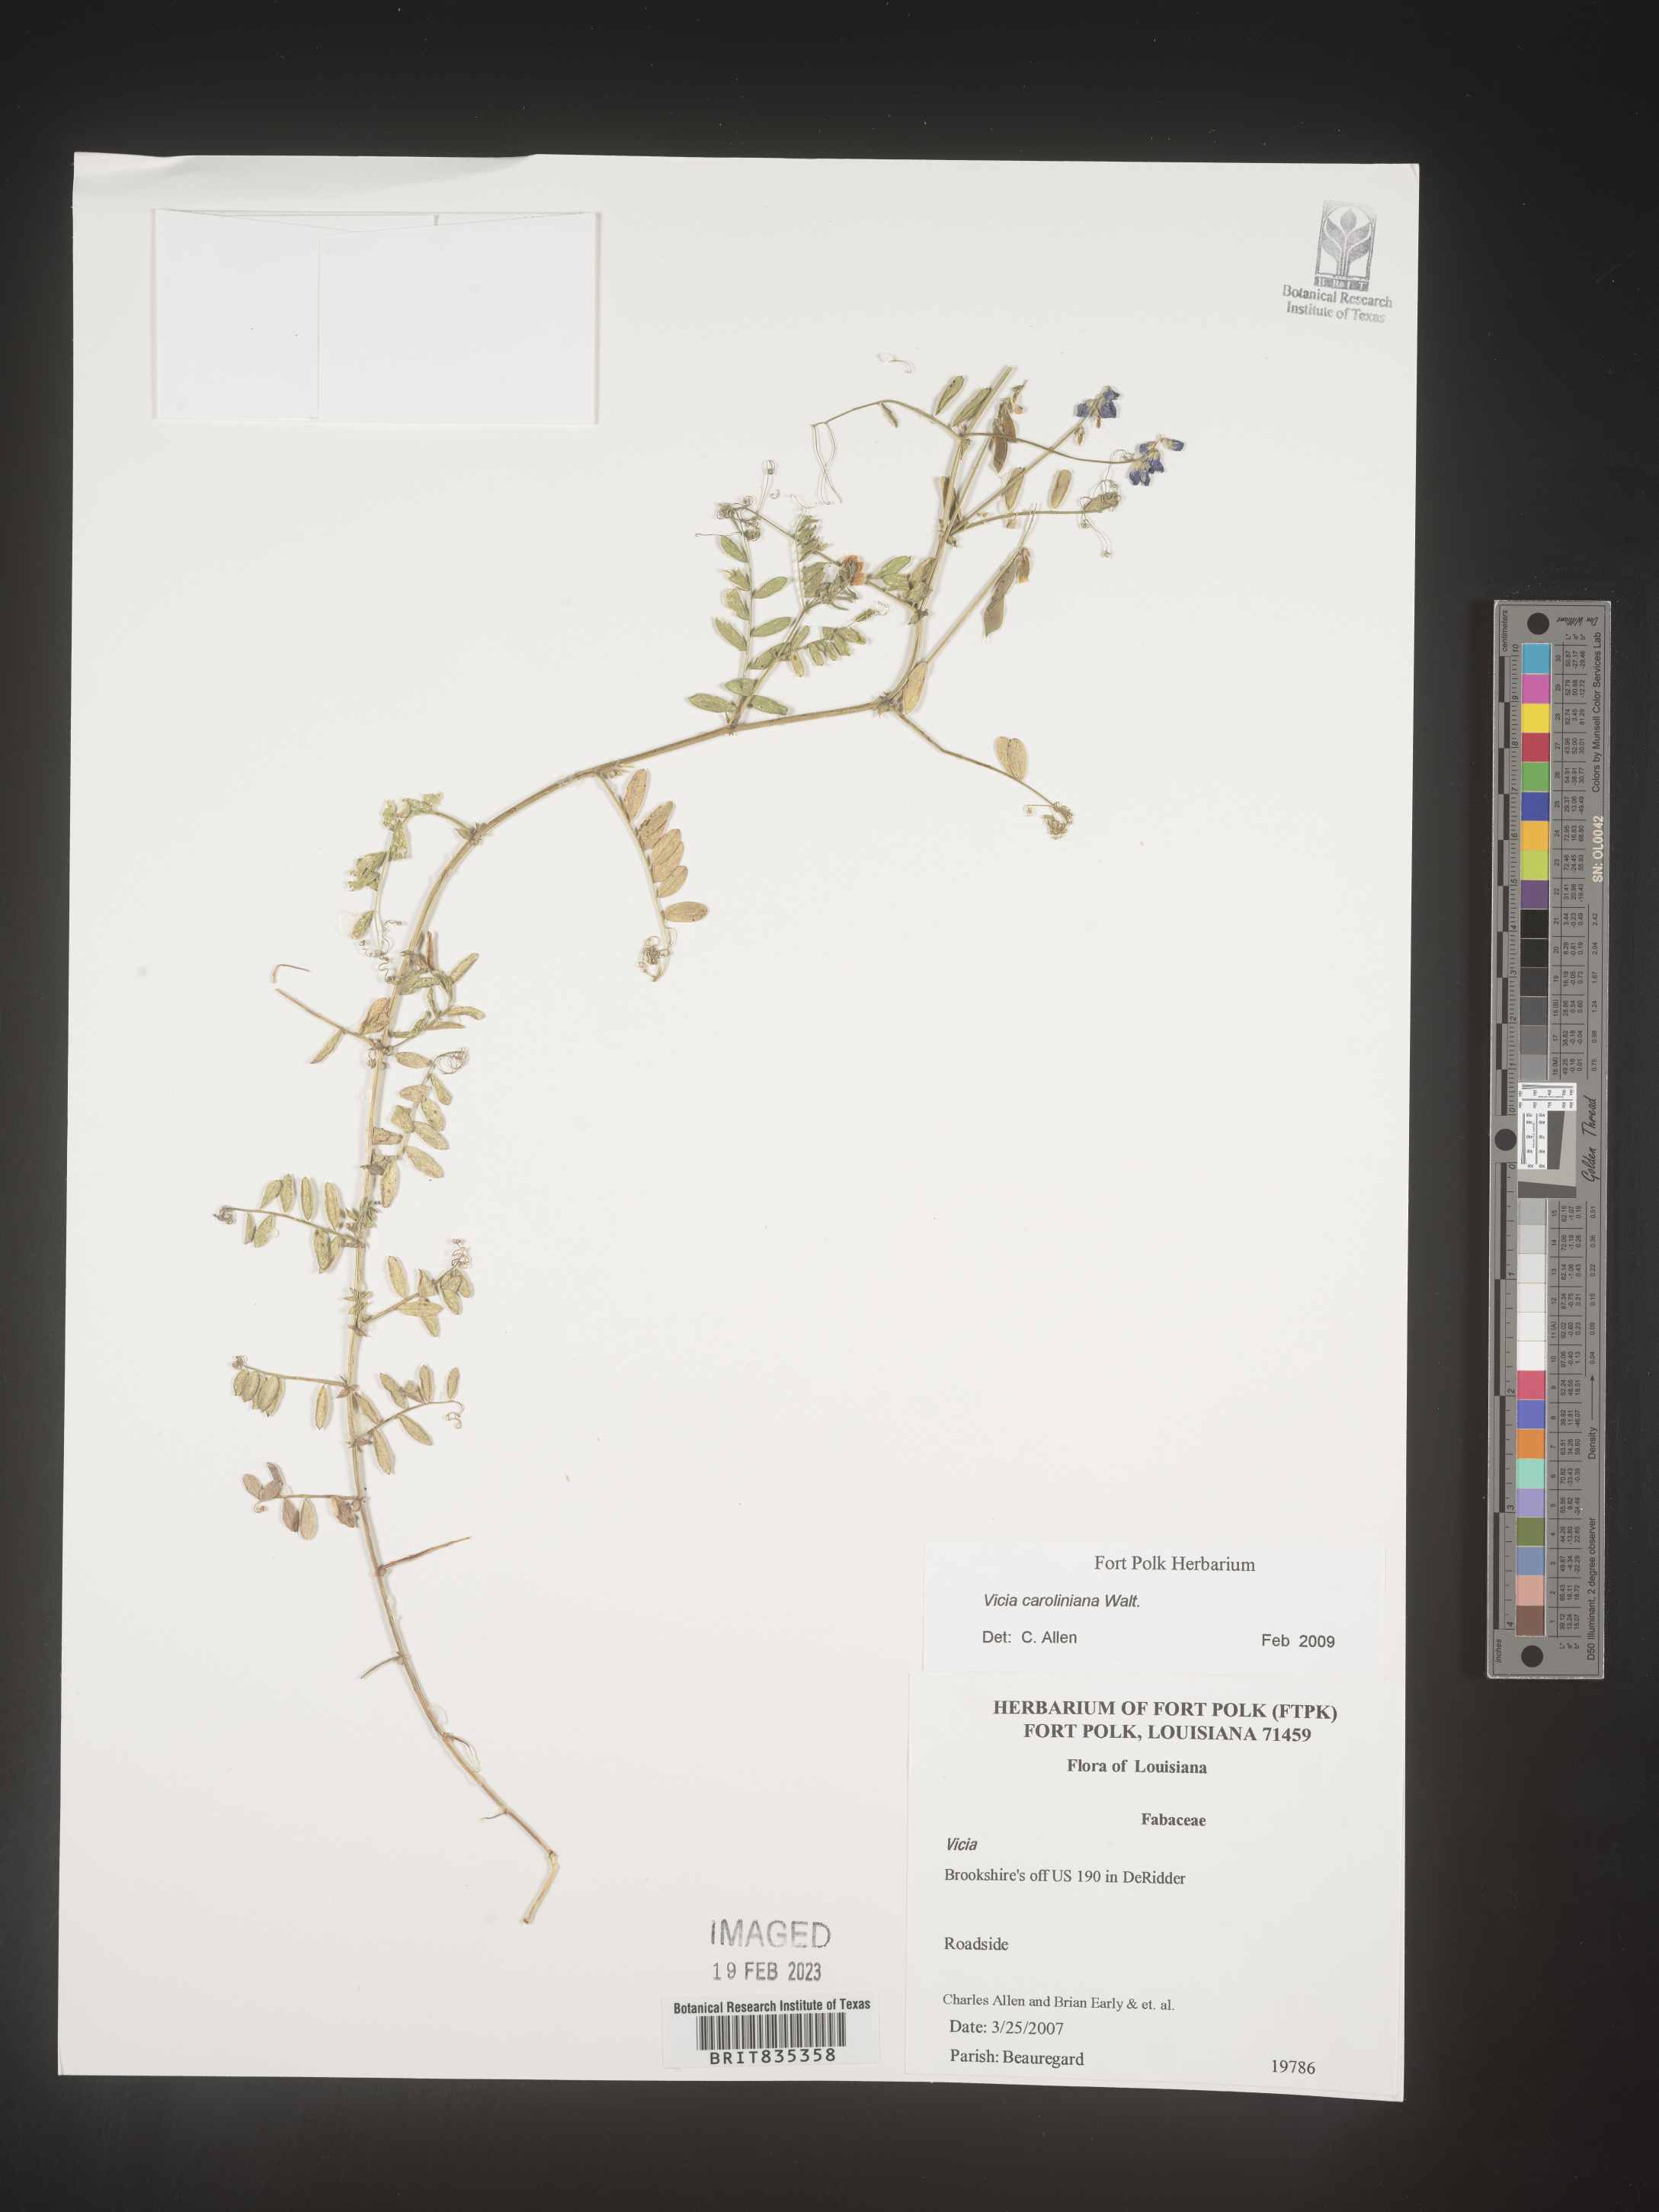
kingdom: Plantae
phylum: Tracheophyta
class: Magnoliopsida
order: Fabales
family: Fabaceae
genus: Vicia
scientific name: Vicia caroliniana
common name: Carolina vetch
